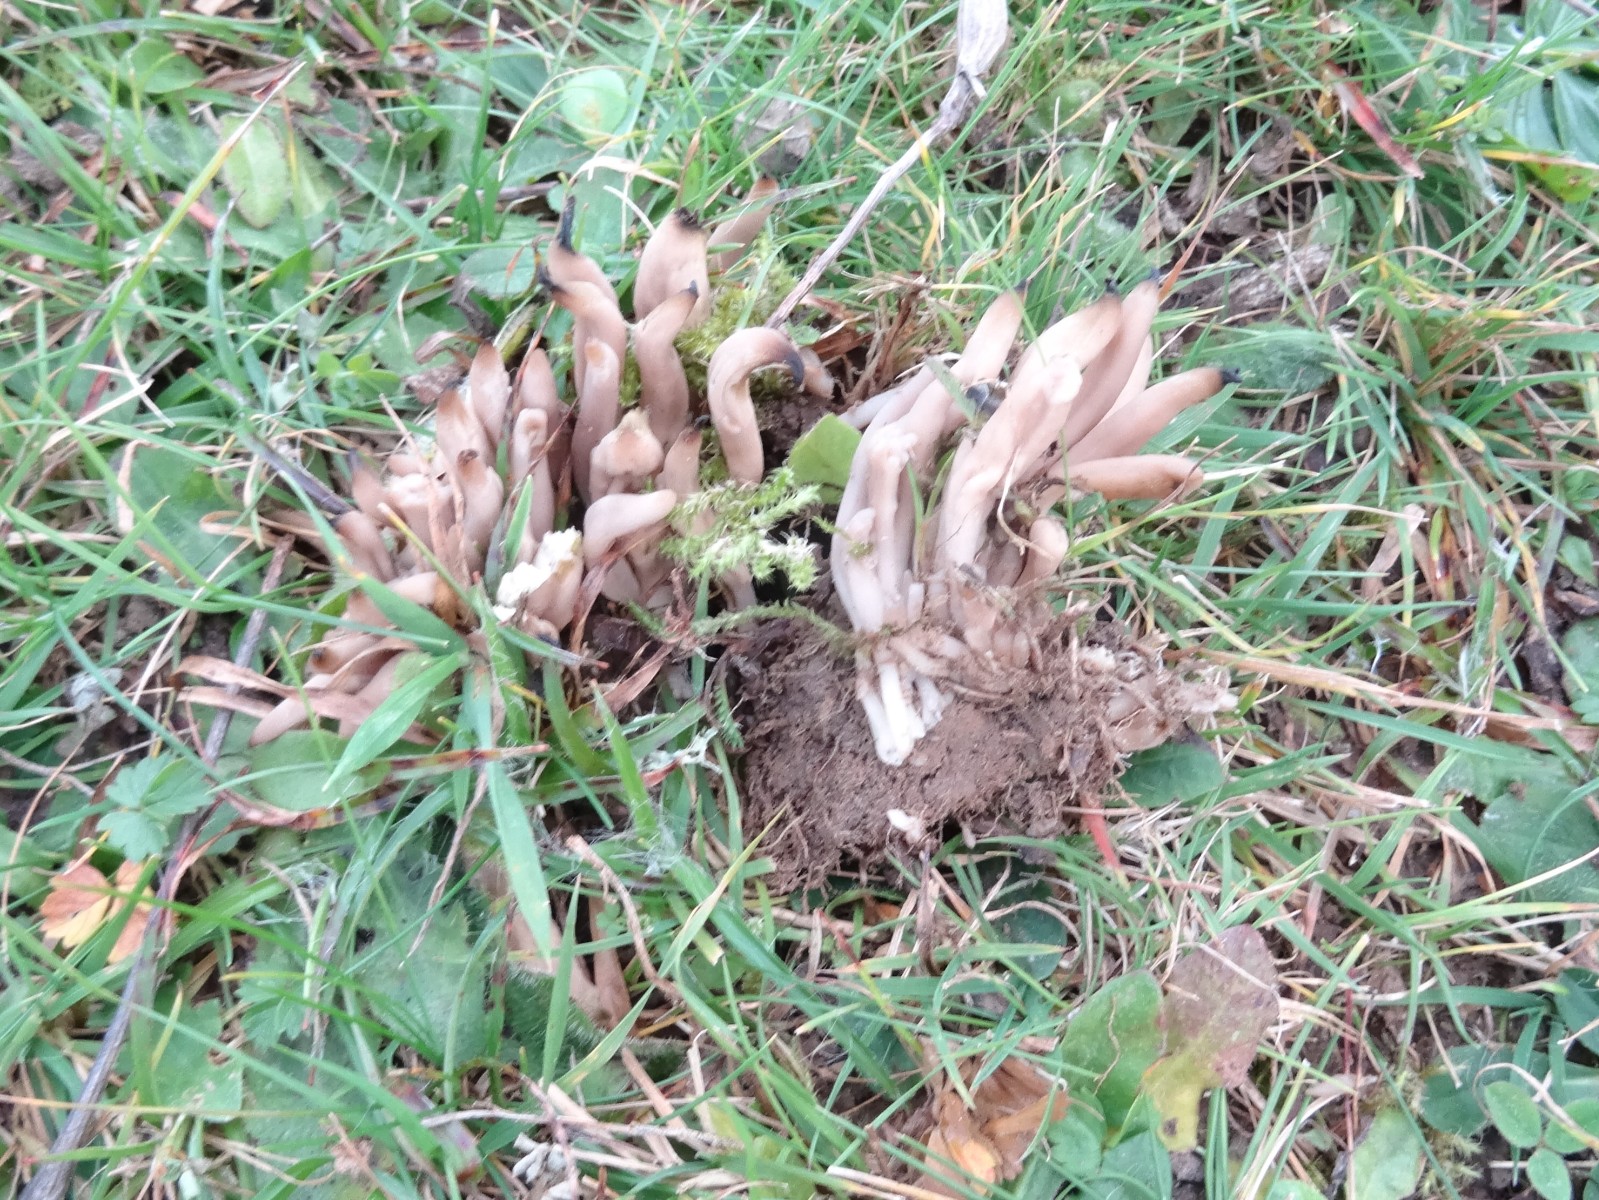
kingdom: Fungi
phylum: Basidiomycota
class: Agaricomycetes
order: Agaricales
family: Clavariaceae
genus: Clavaria
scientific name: Clavaria fumosa
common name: røggrå køllesvamp
